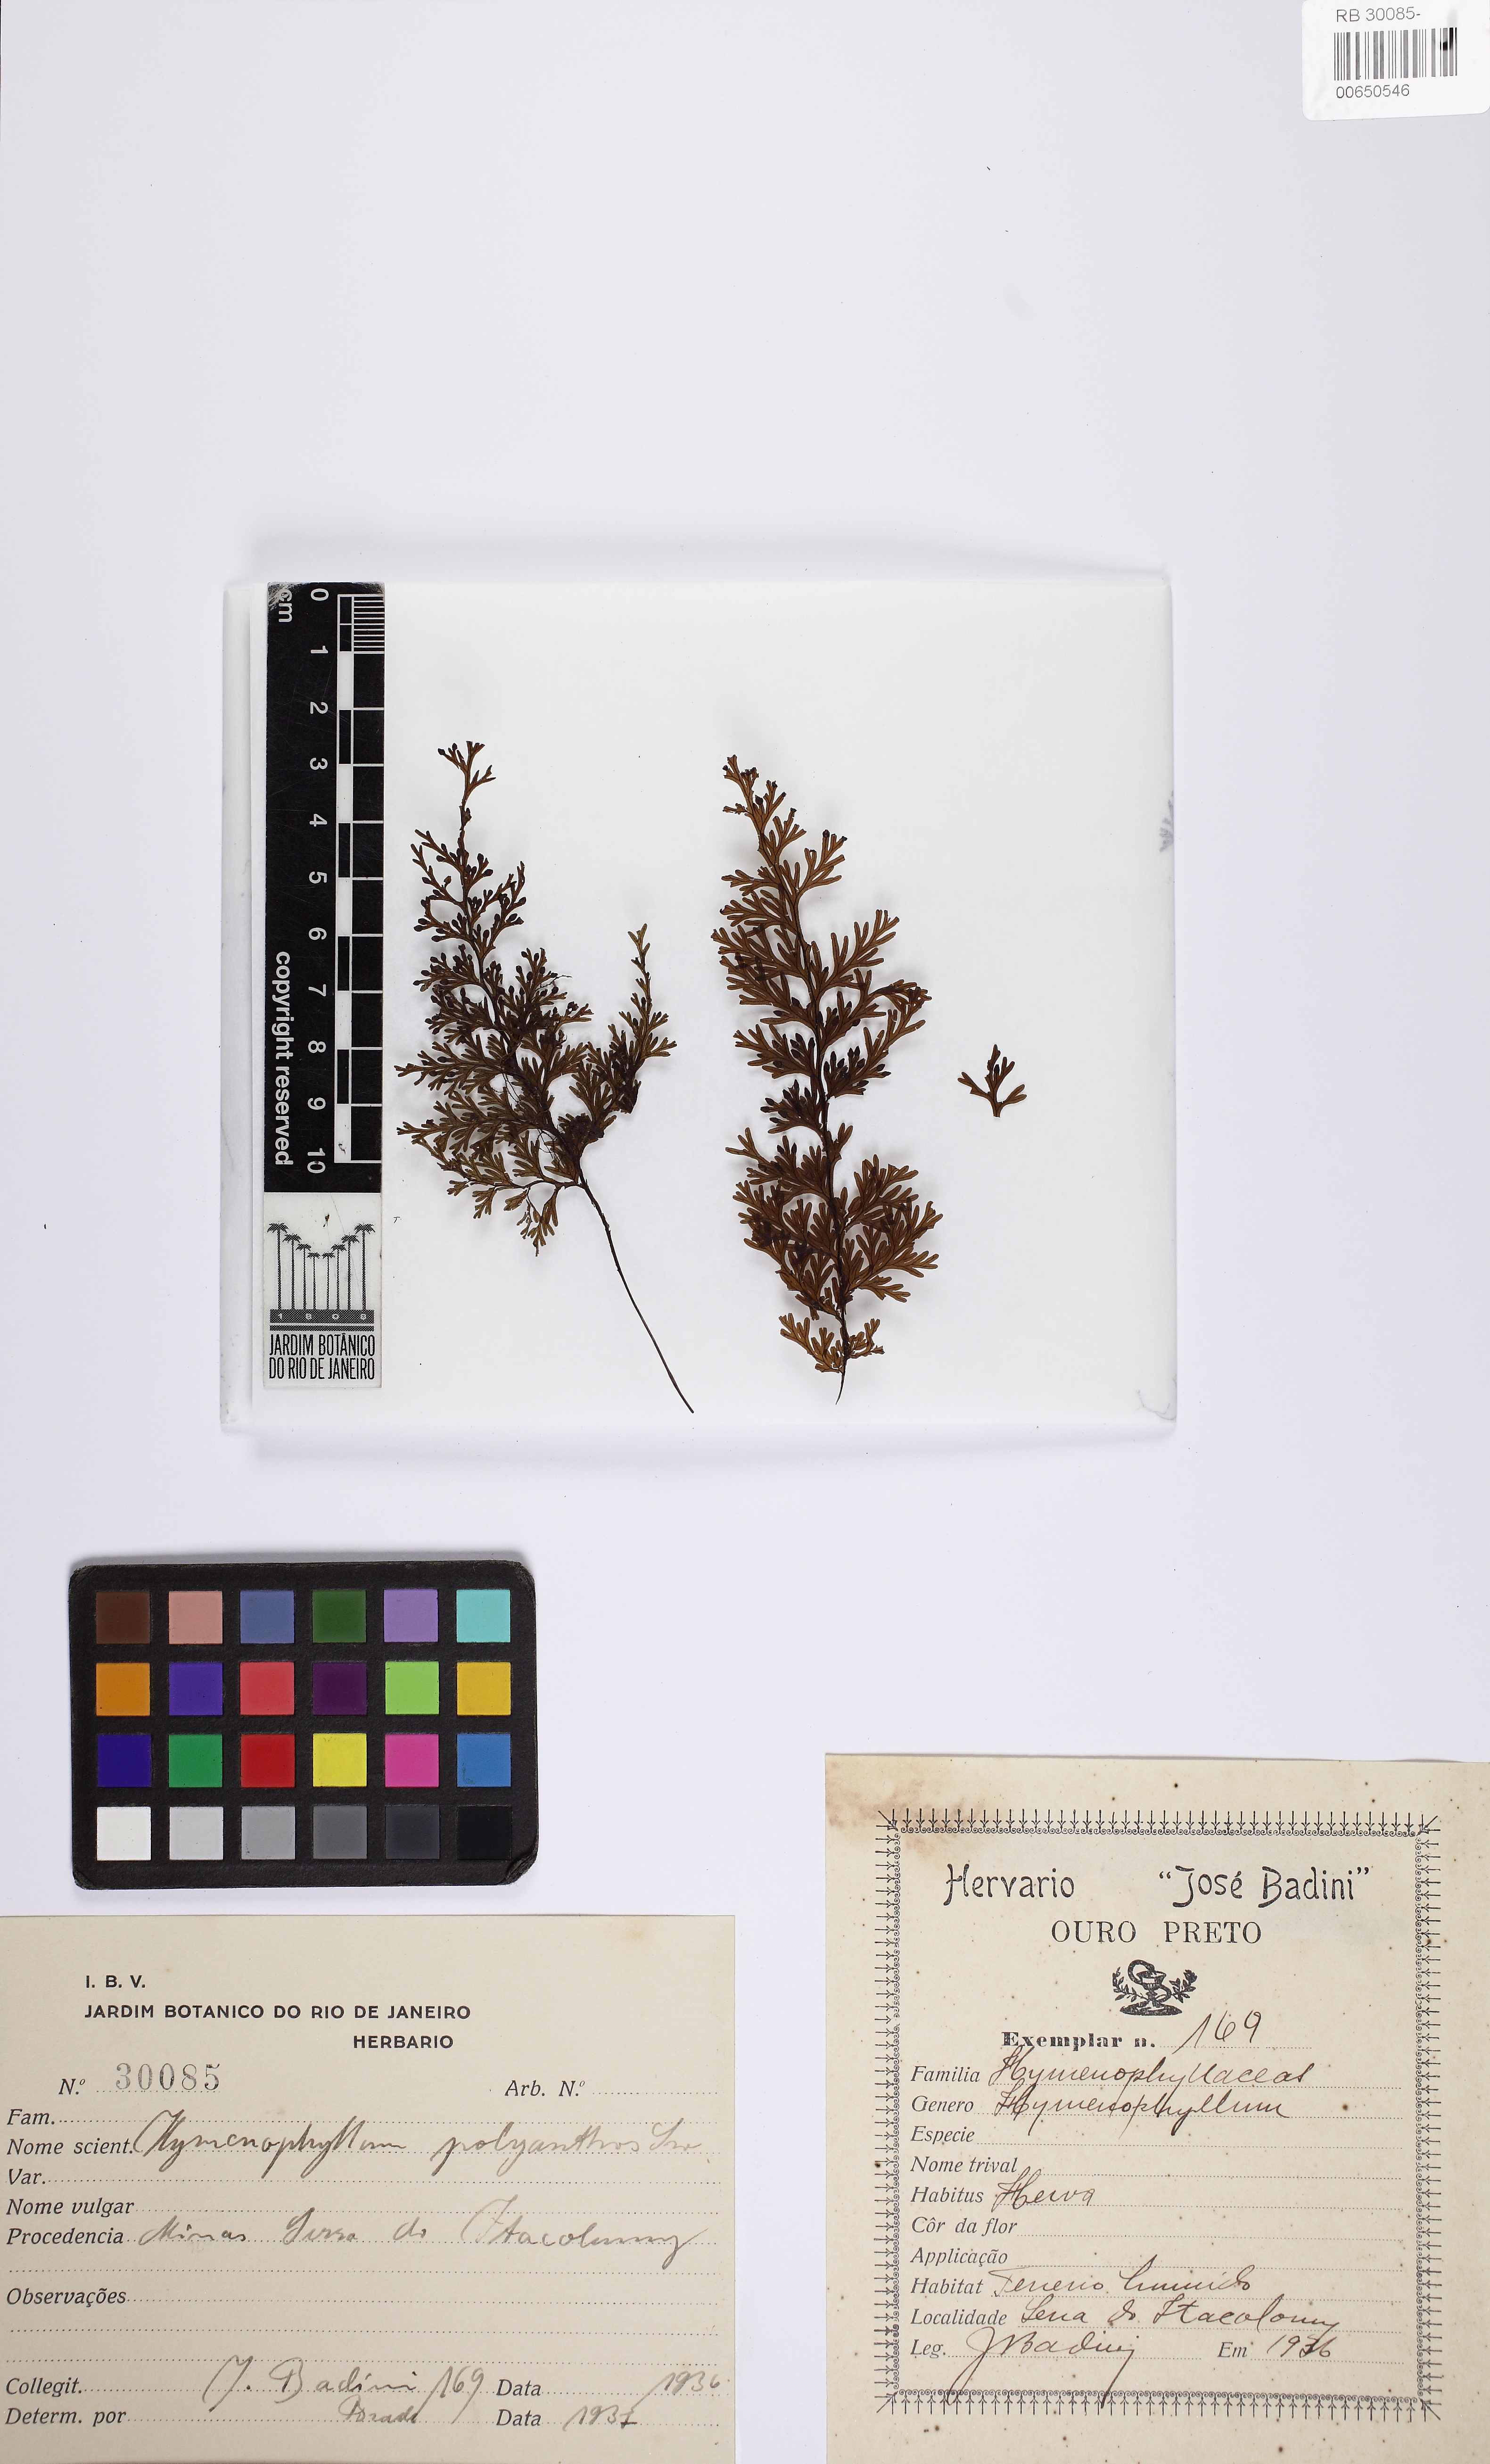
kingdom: Plantae
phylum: Tracheophyta
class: Liliopsida
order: Poales
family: Bromeliaceae
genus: Tillandsia
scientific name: Tillandsia didisticha
